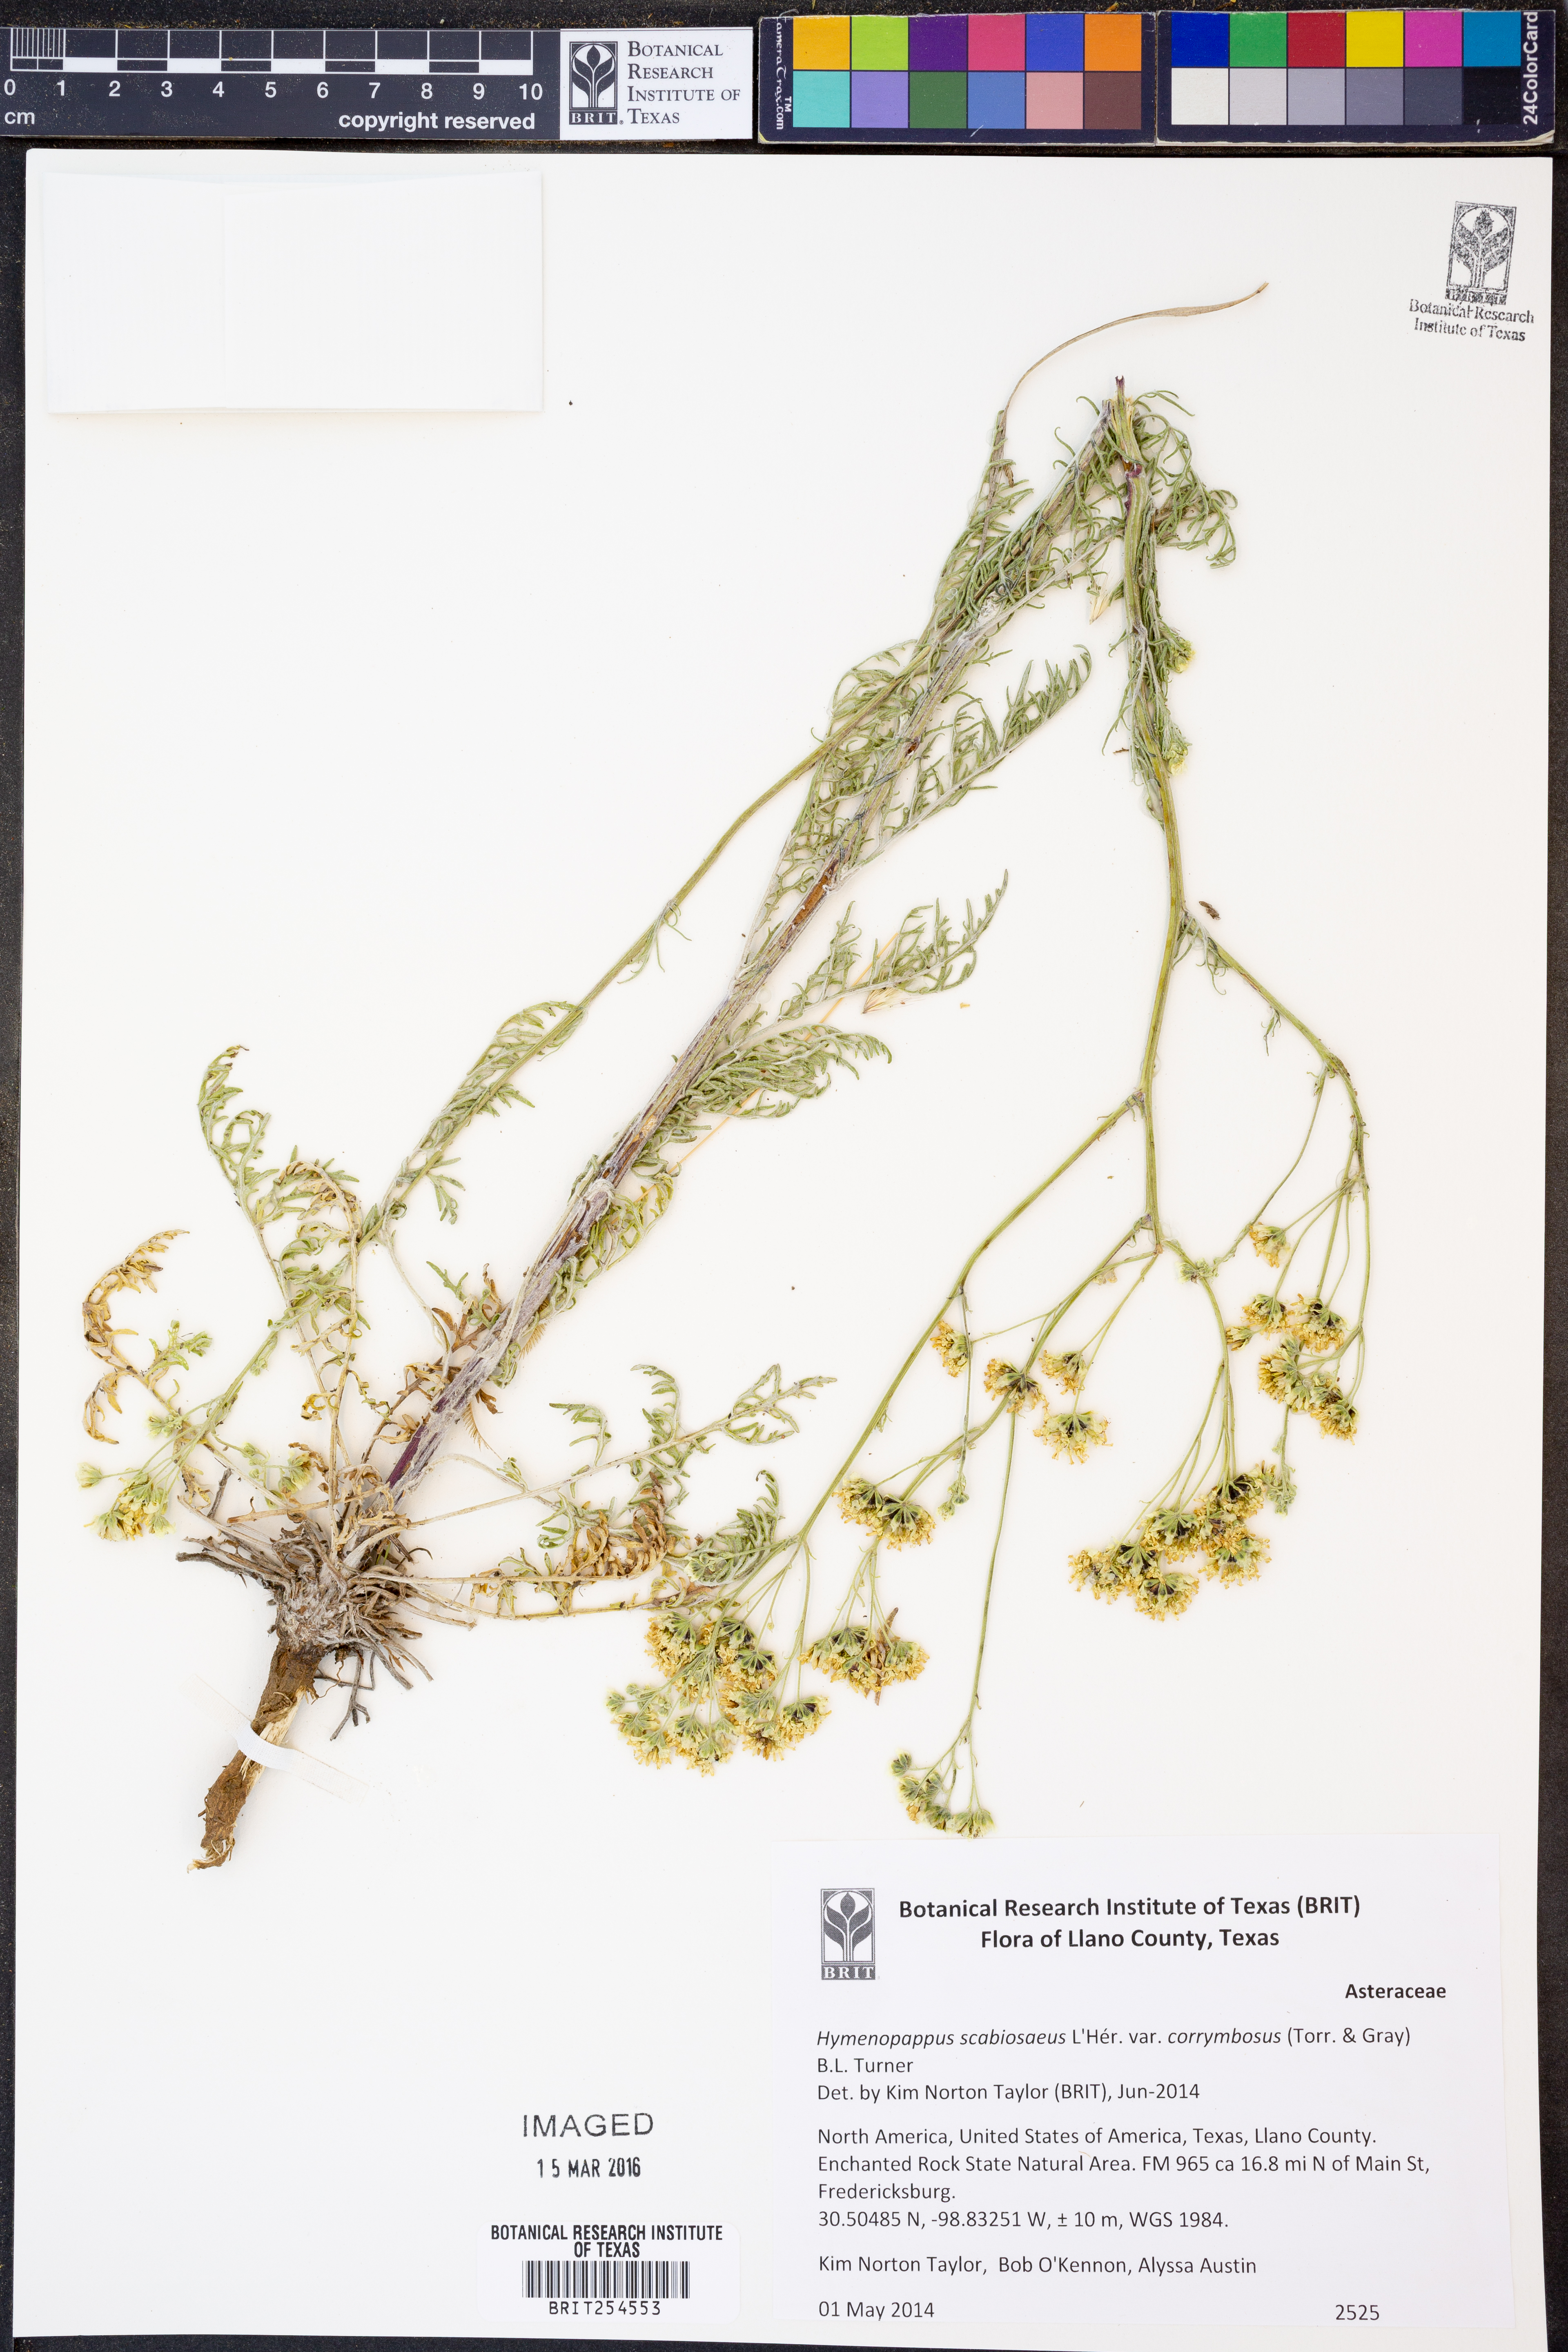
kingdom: Plantae
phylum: Tracheophyta
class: Magnoliopsida
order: Asterales
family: Asteraceae
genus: Hymenopappus
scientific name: Hymenopappus scabiosaeus
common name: Carolina woollywhite
